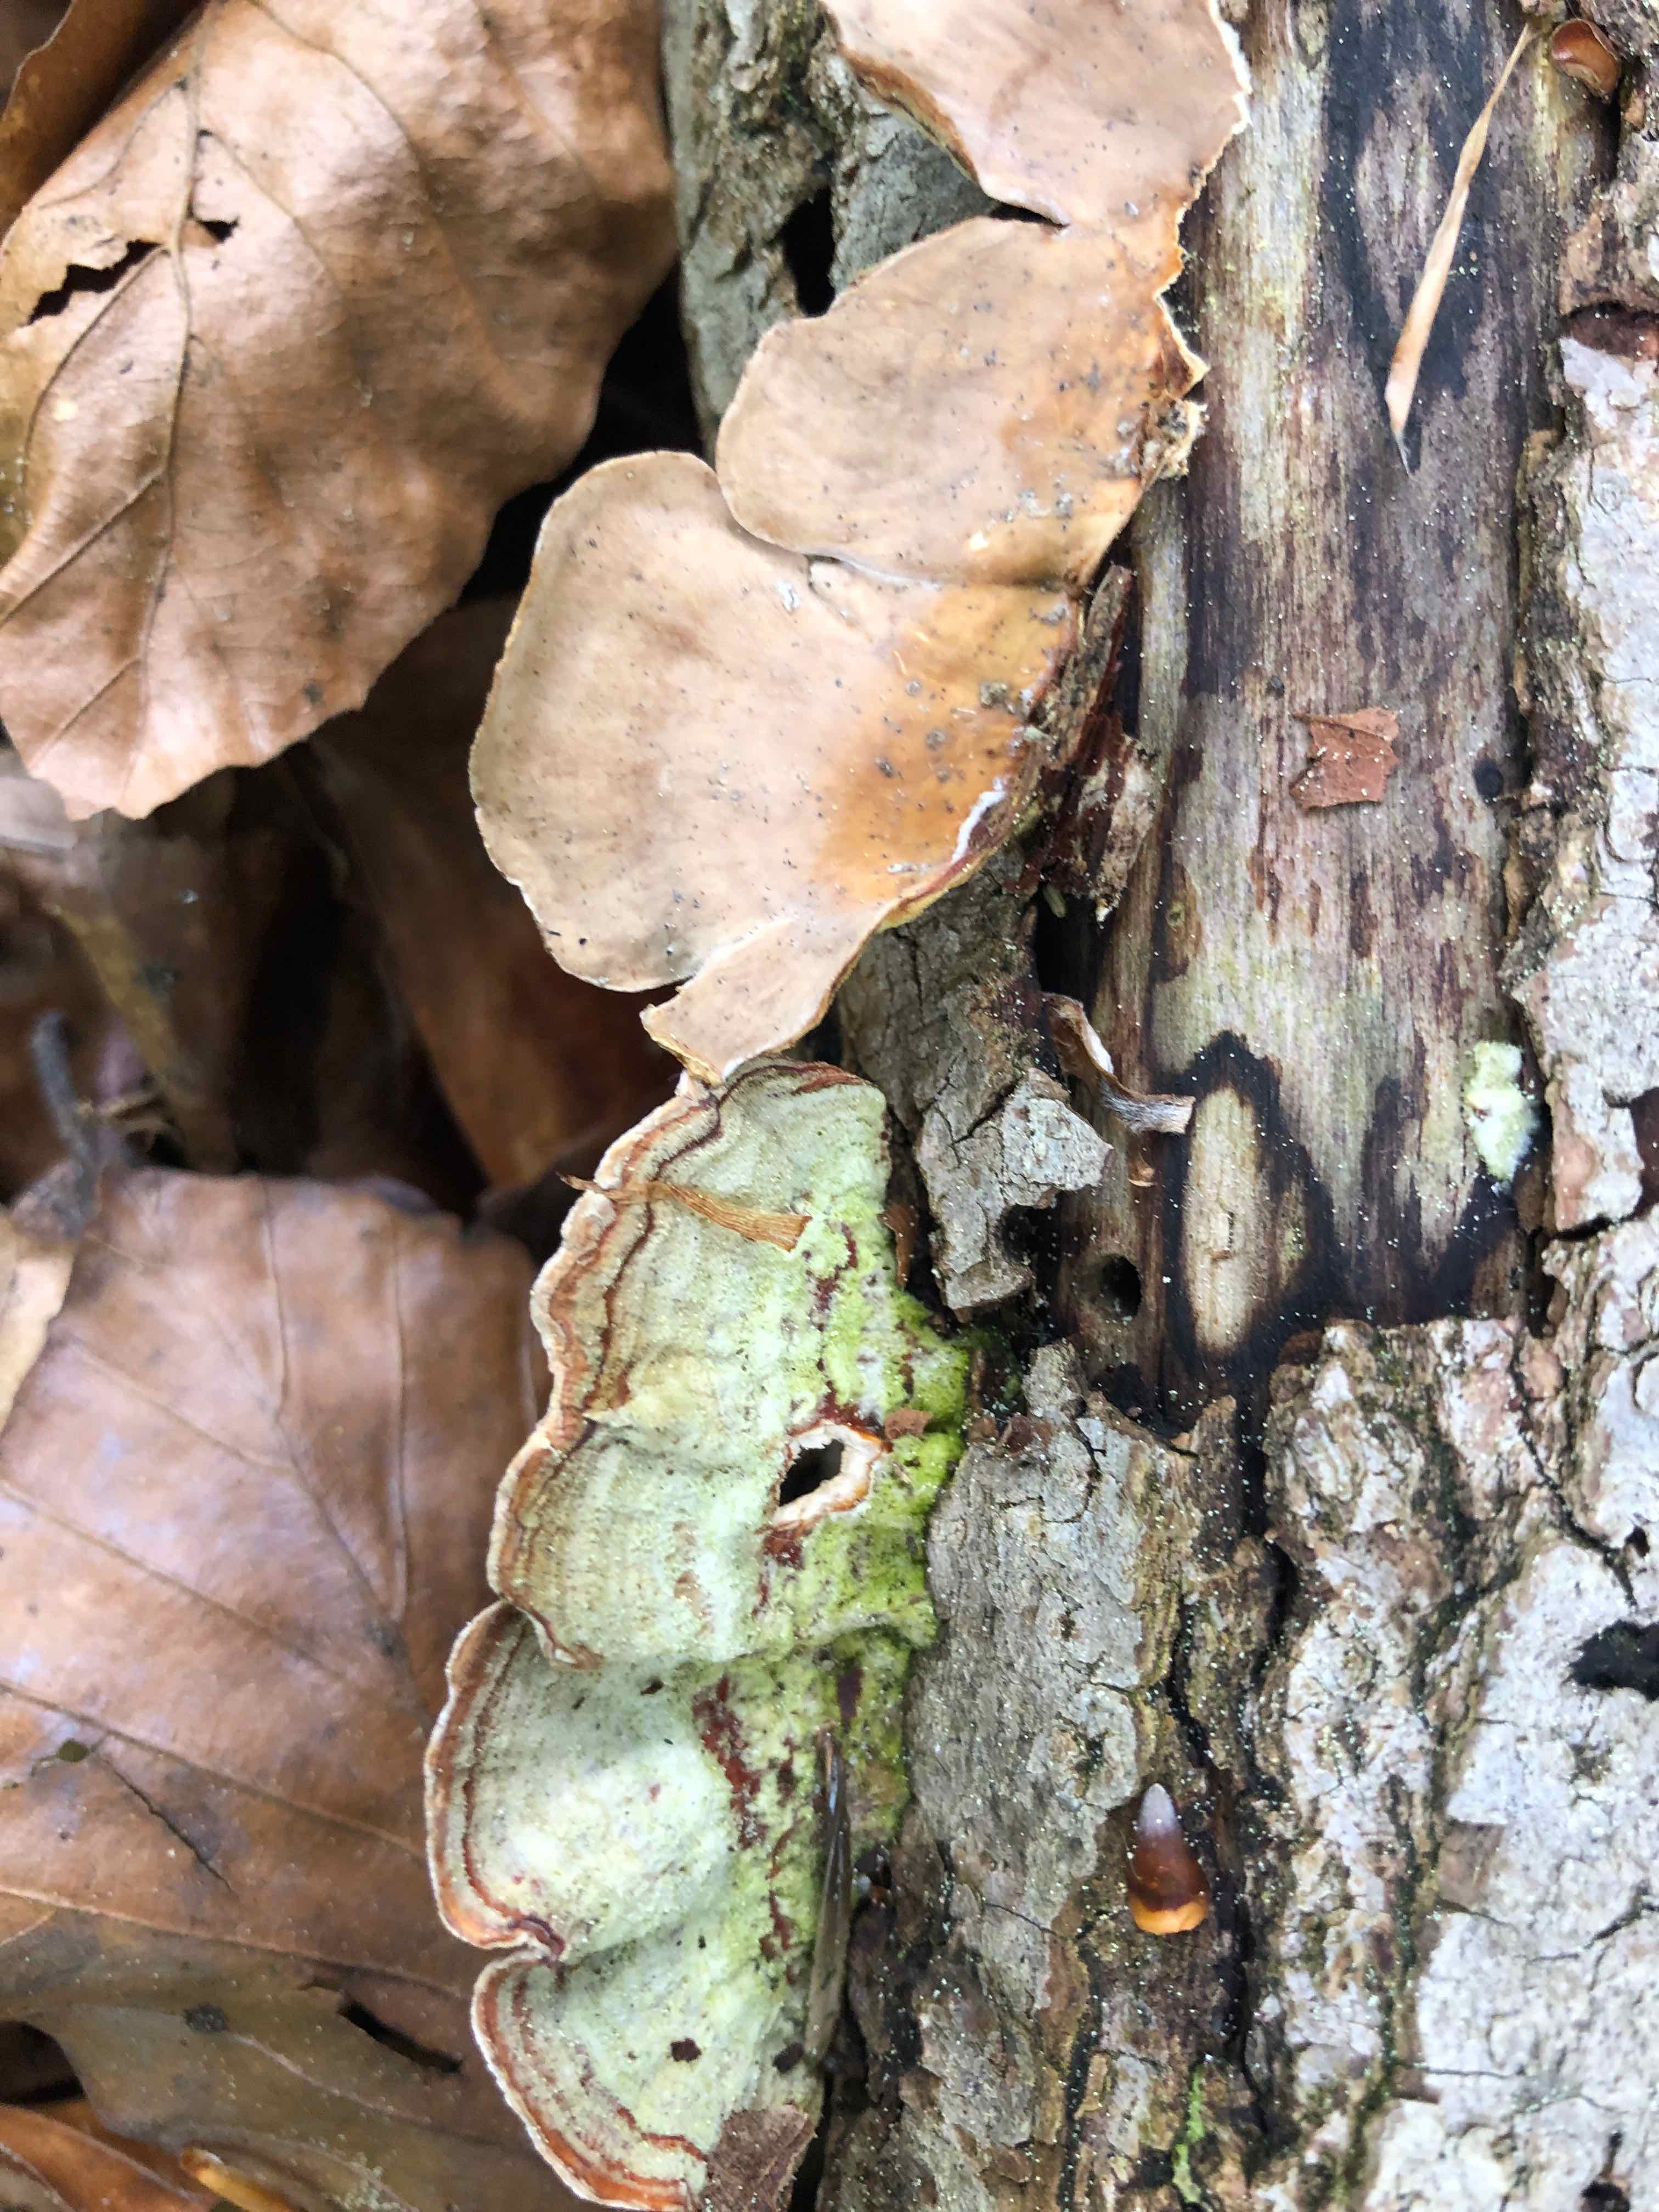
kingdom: Fungi
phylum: Basidiomycota
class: Agaricomycetes
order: Russulales
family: Stereaceae
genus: Stereum
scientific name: Stereum subtomentosum
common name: smuk lædersvamp
